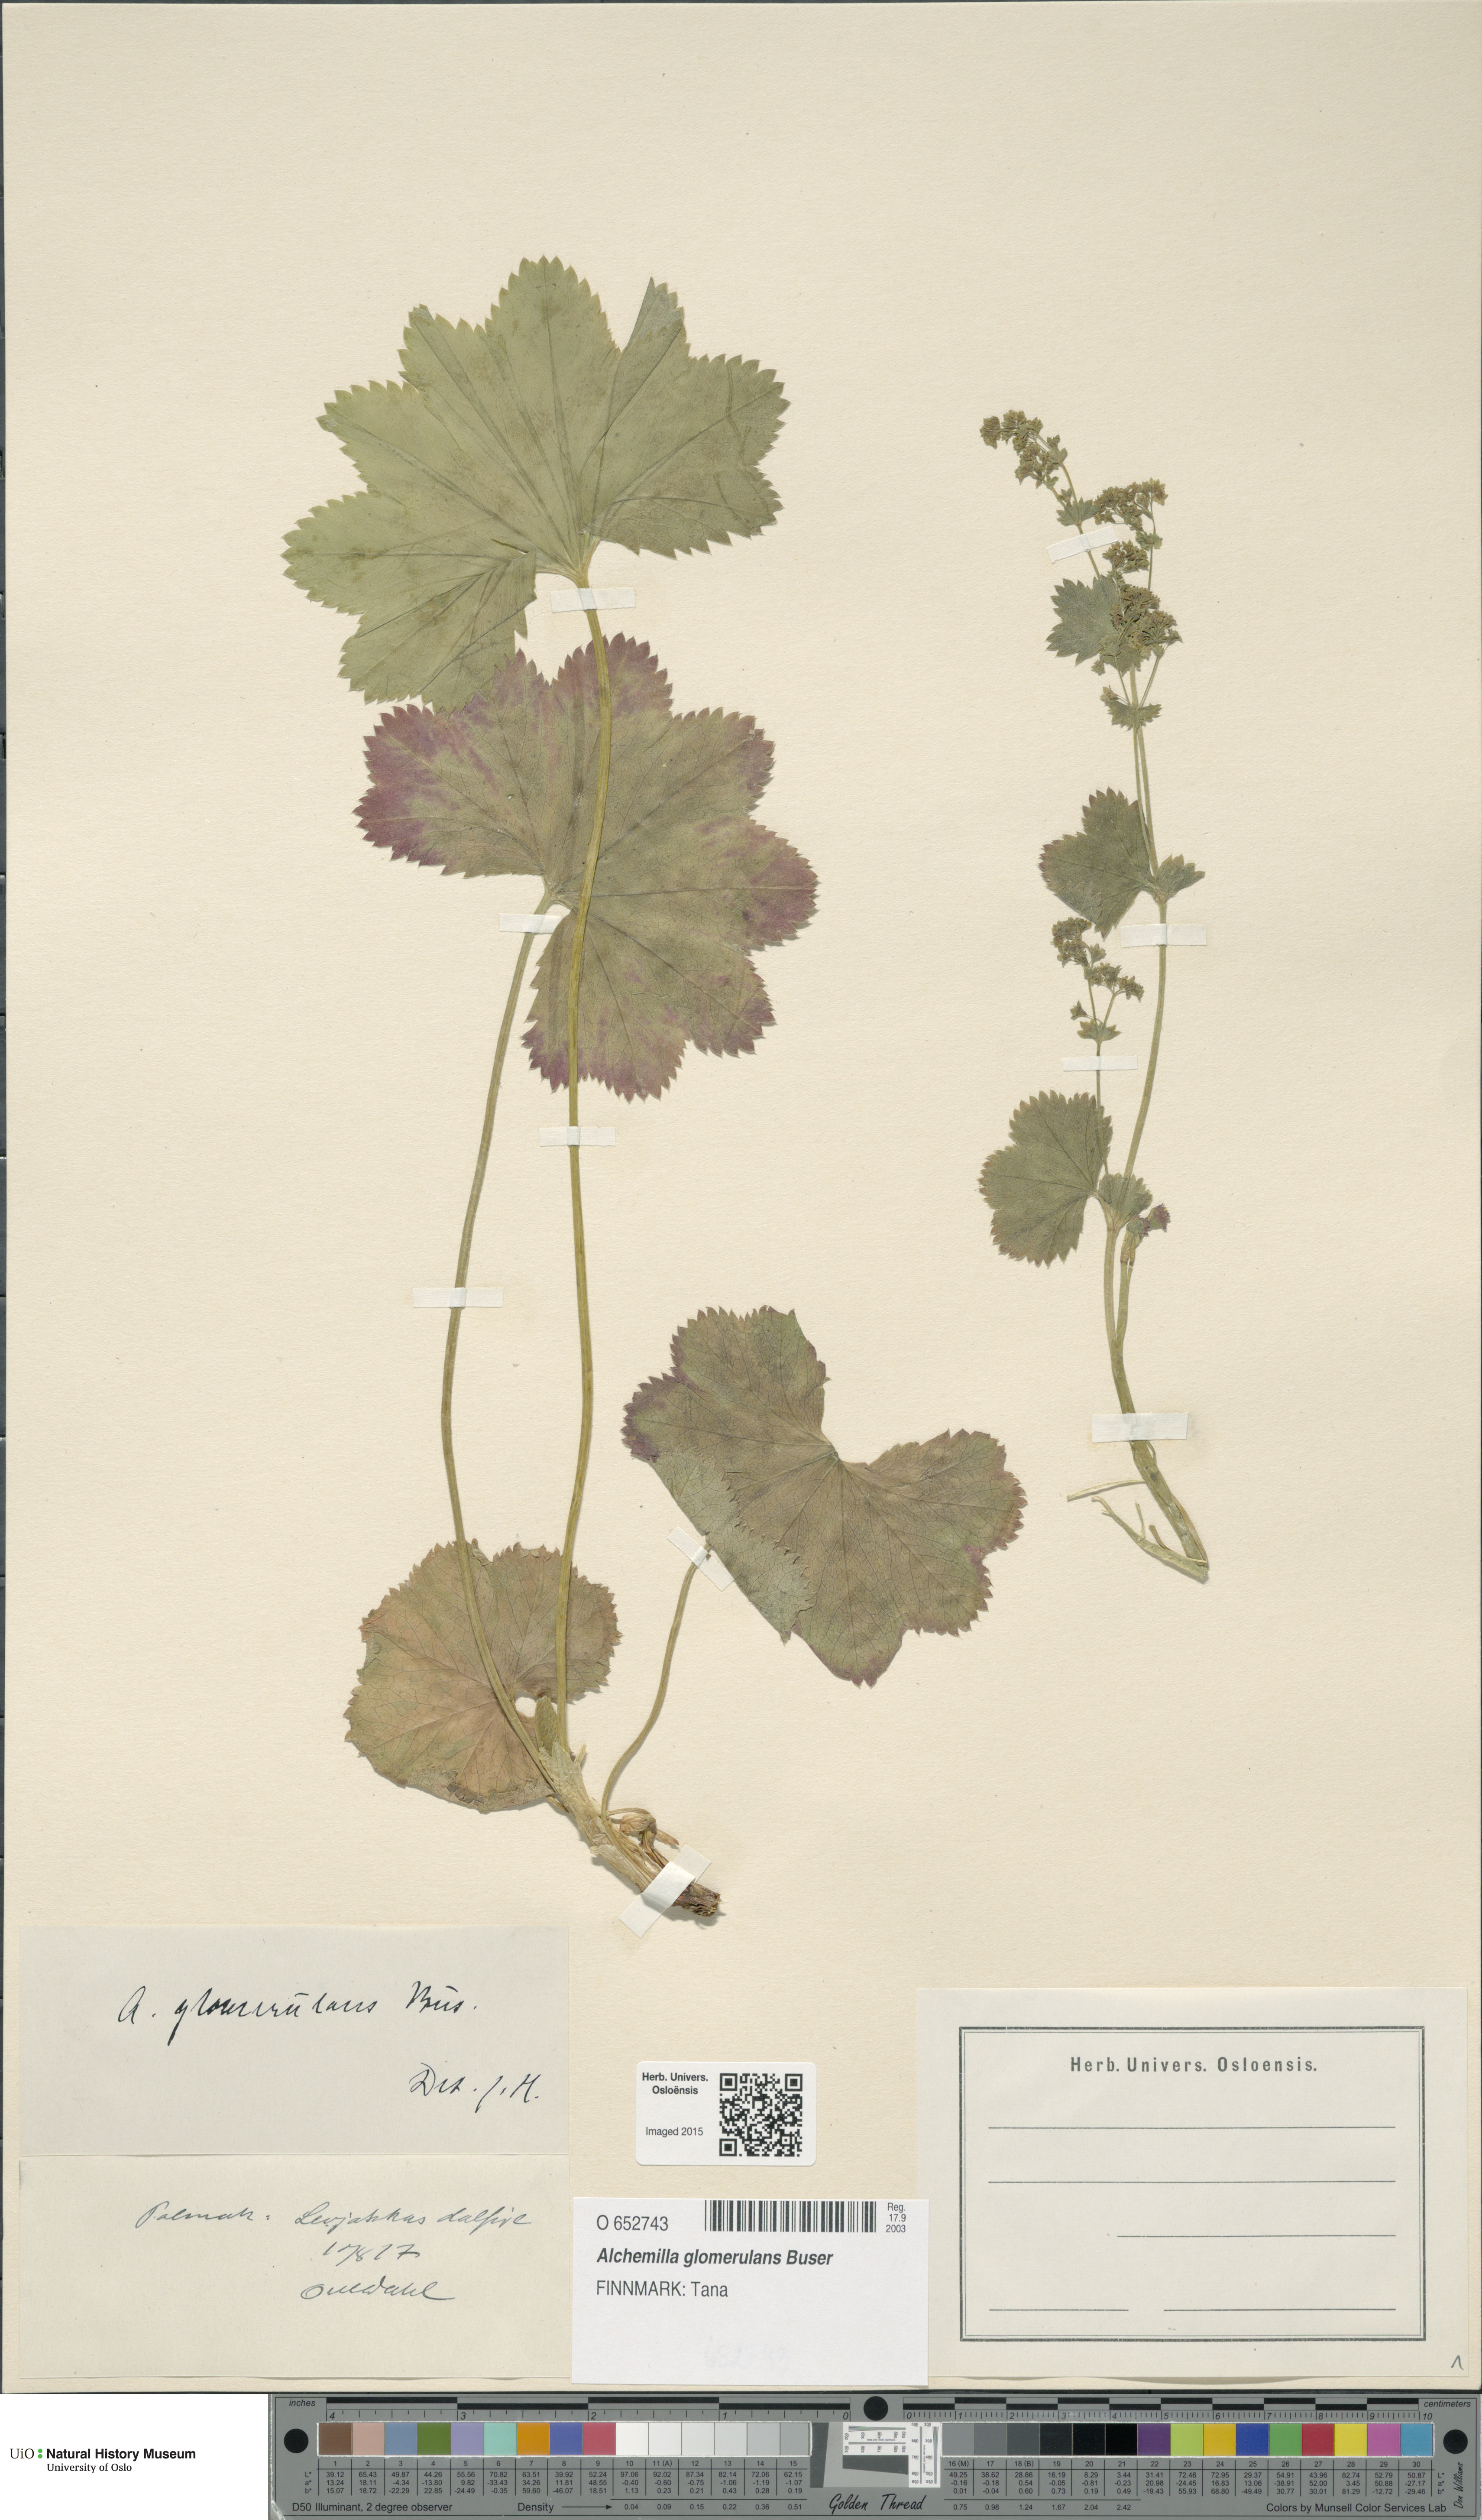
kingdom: Plantae
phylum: Tracheophyta
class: Magnoliopsida
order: Rosales
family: Rosaceae
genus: Alchemilla
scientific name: Alchemilla glomerulans
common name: Clustered lady's mantle
